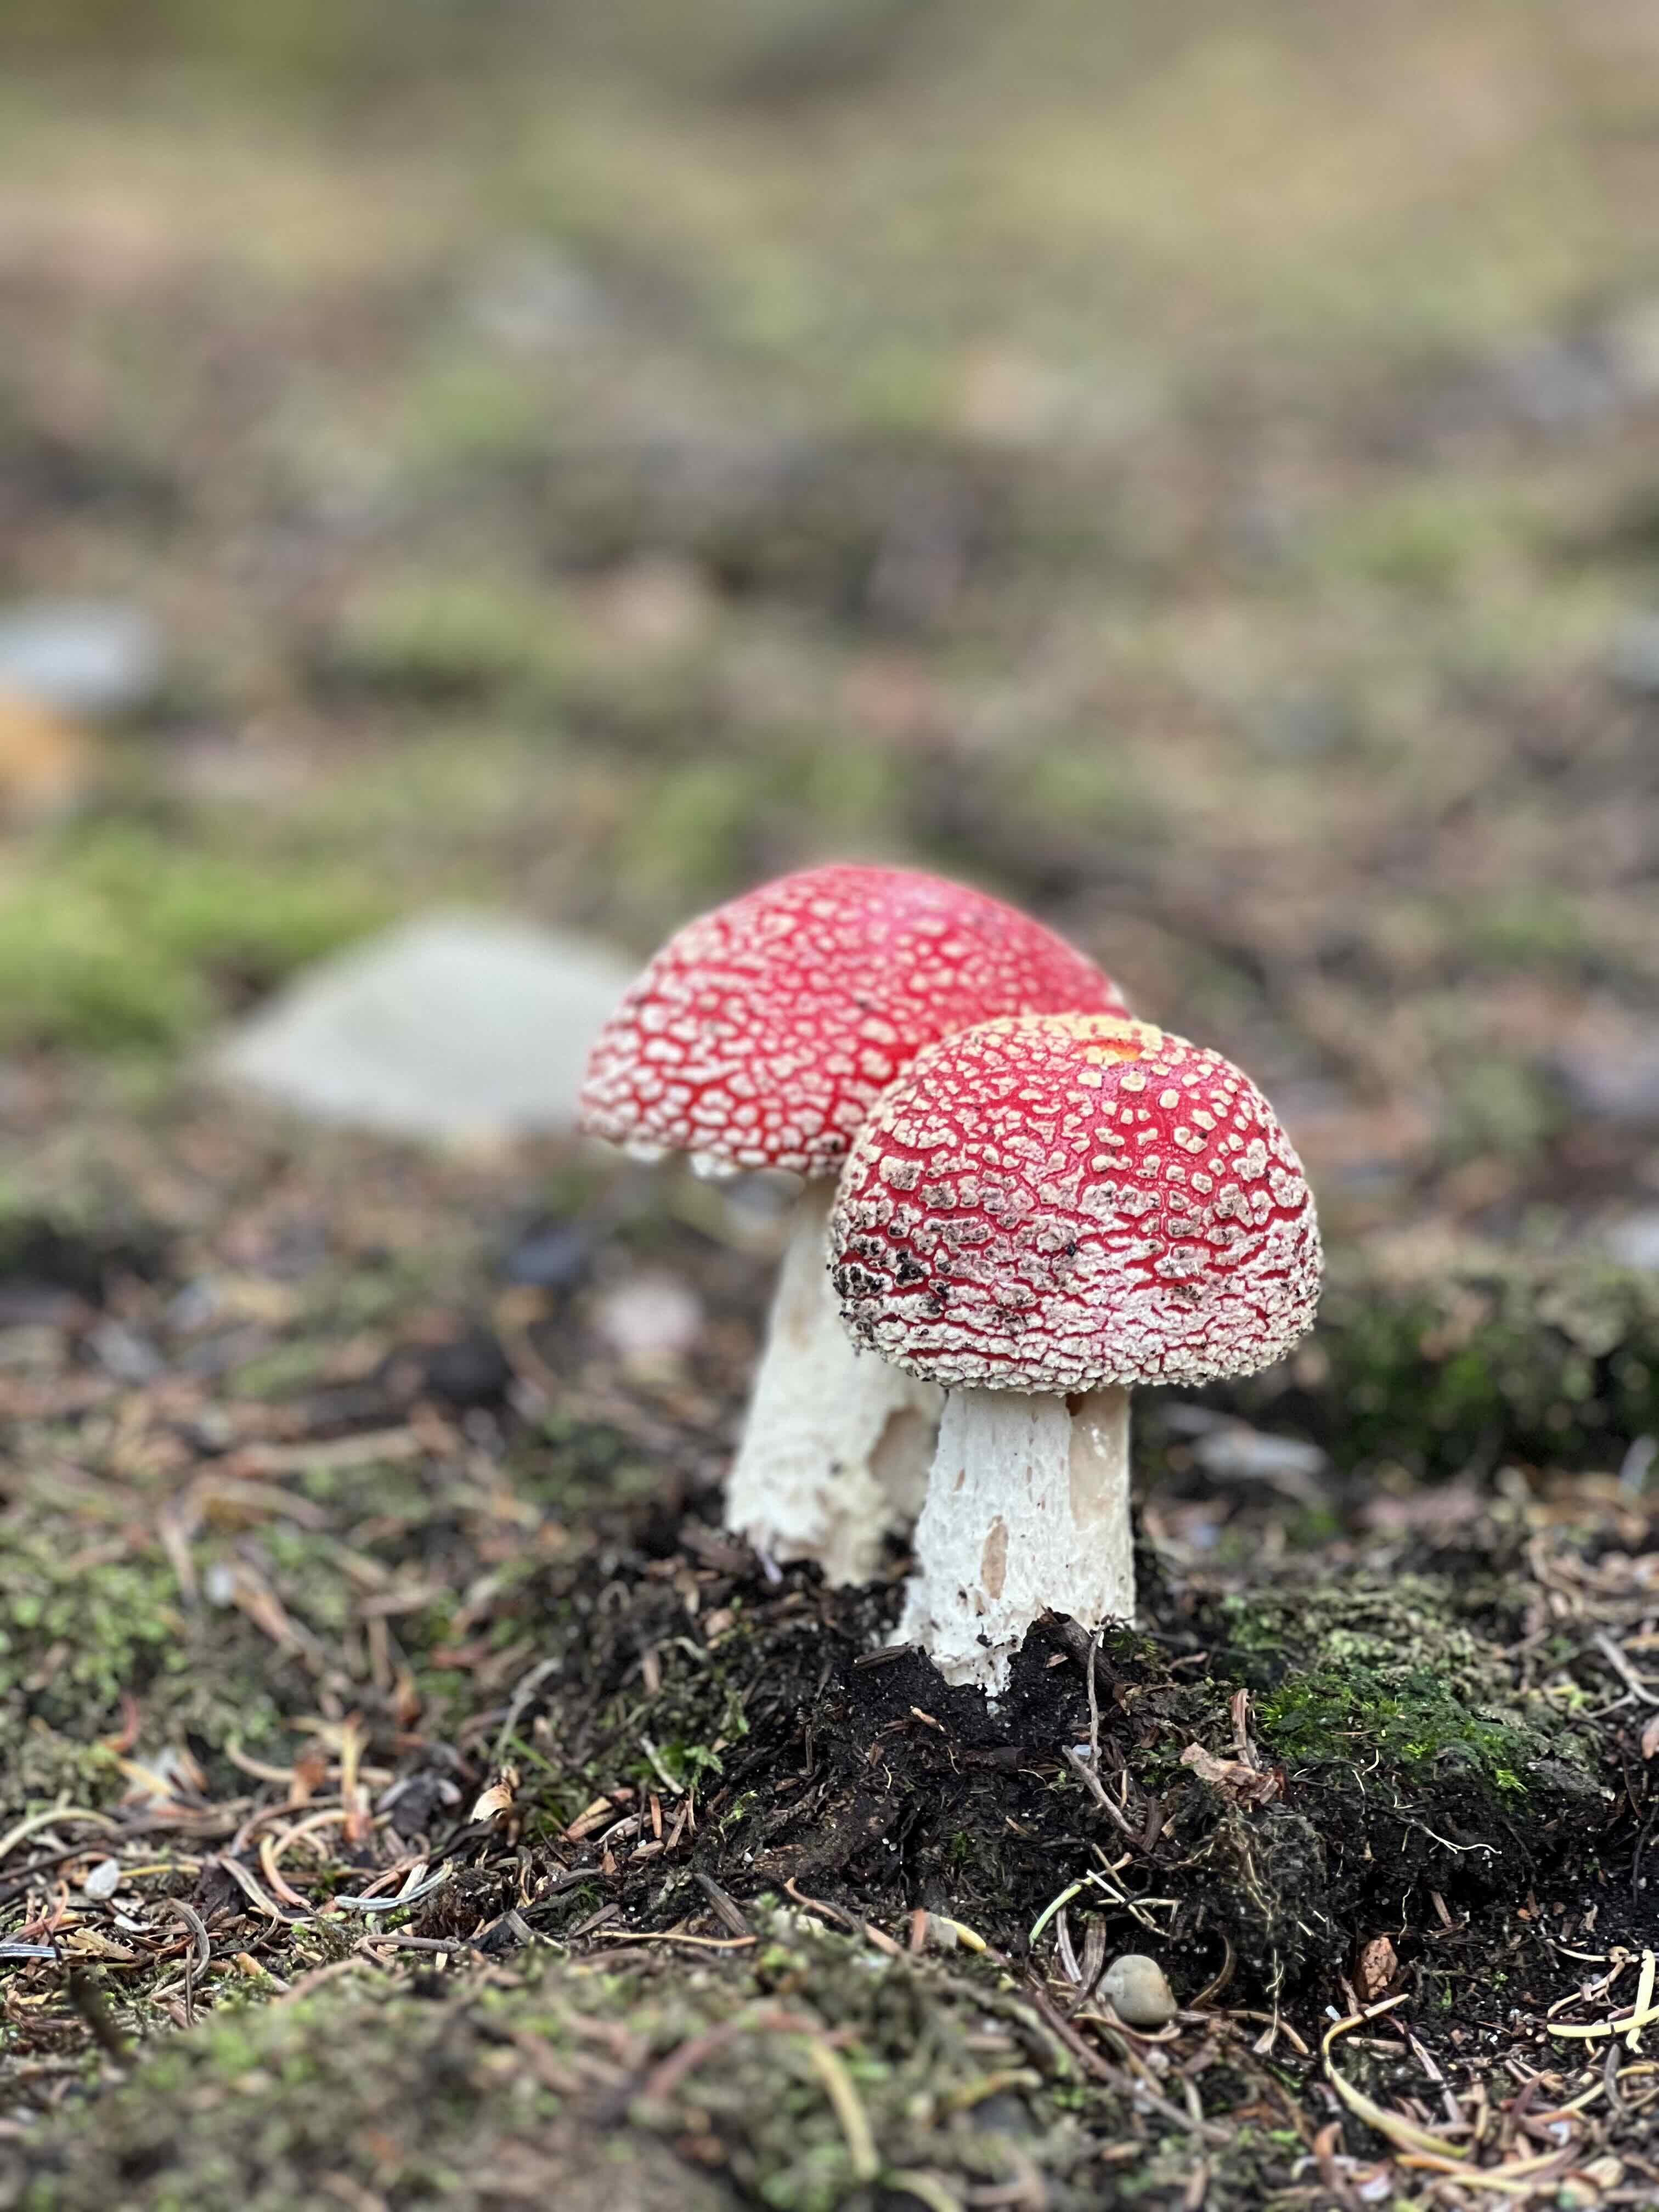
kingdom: Fungi
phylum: Basidiomycota
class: Agaricomycetes
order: Agaricales
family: Amanitaceae
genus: Amanita
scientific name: Amanita muscaria
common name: rød fluesvamp
